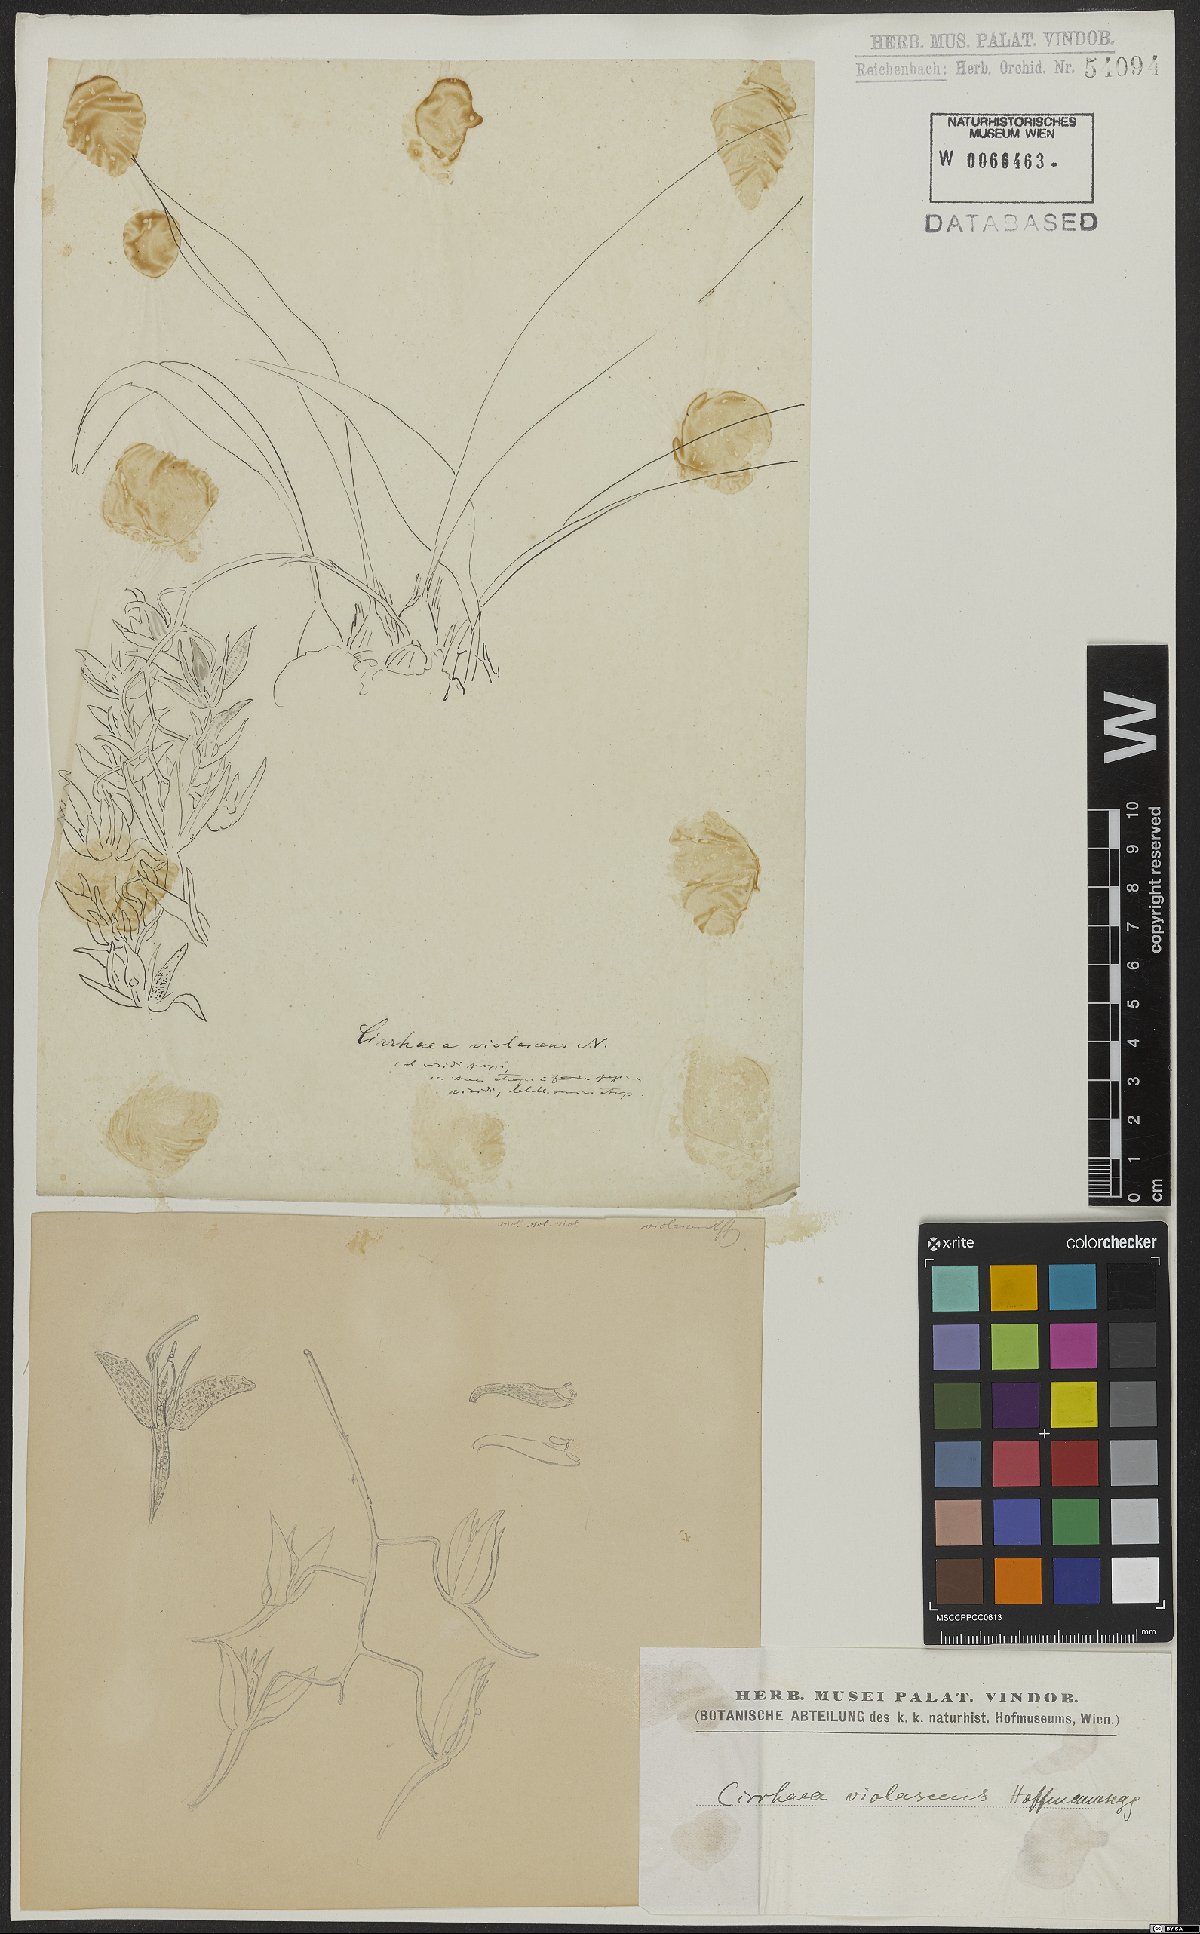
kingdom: Plantae
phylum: Tracheophyta
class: Liliopsida
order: Asparagales
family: Orchidaceae
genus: Cirrhaea
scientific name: Cirrhaea dependens
